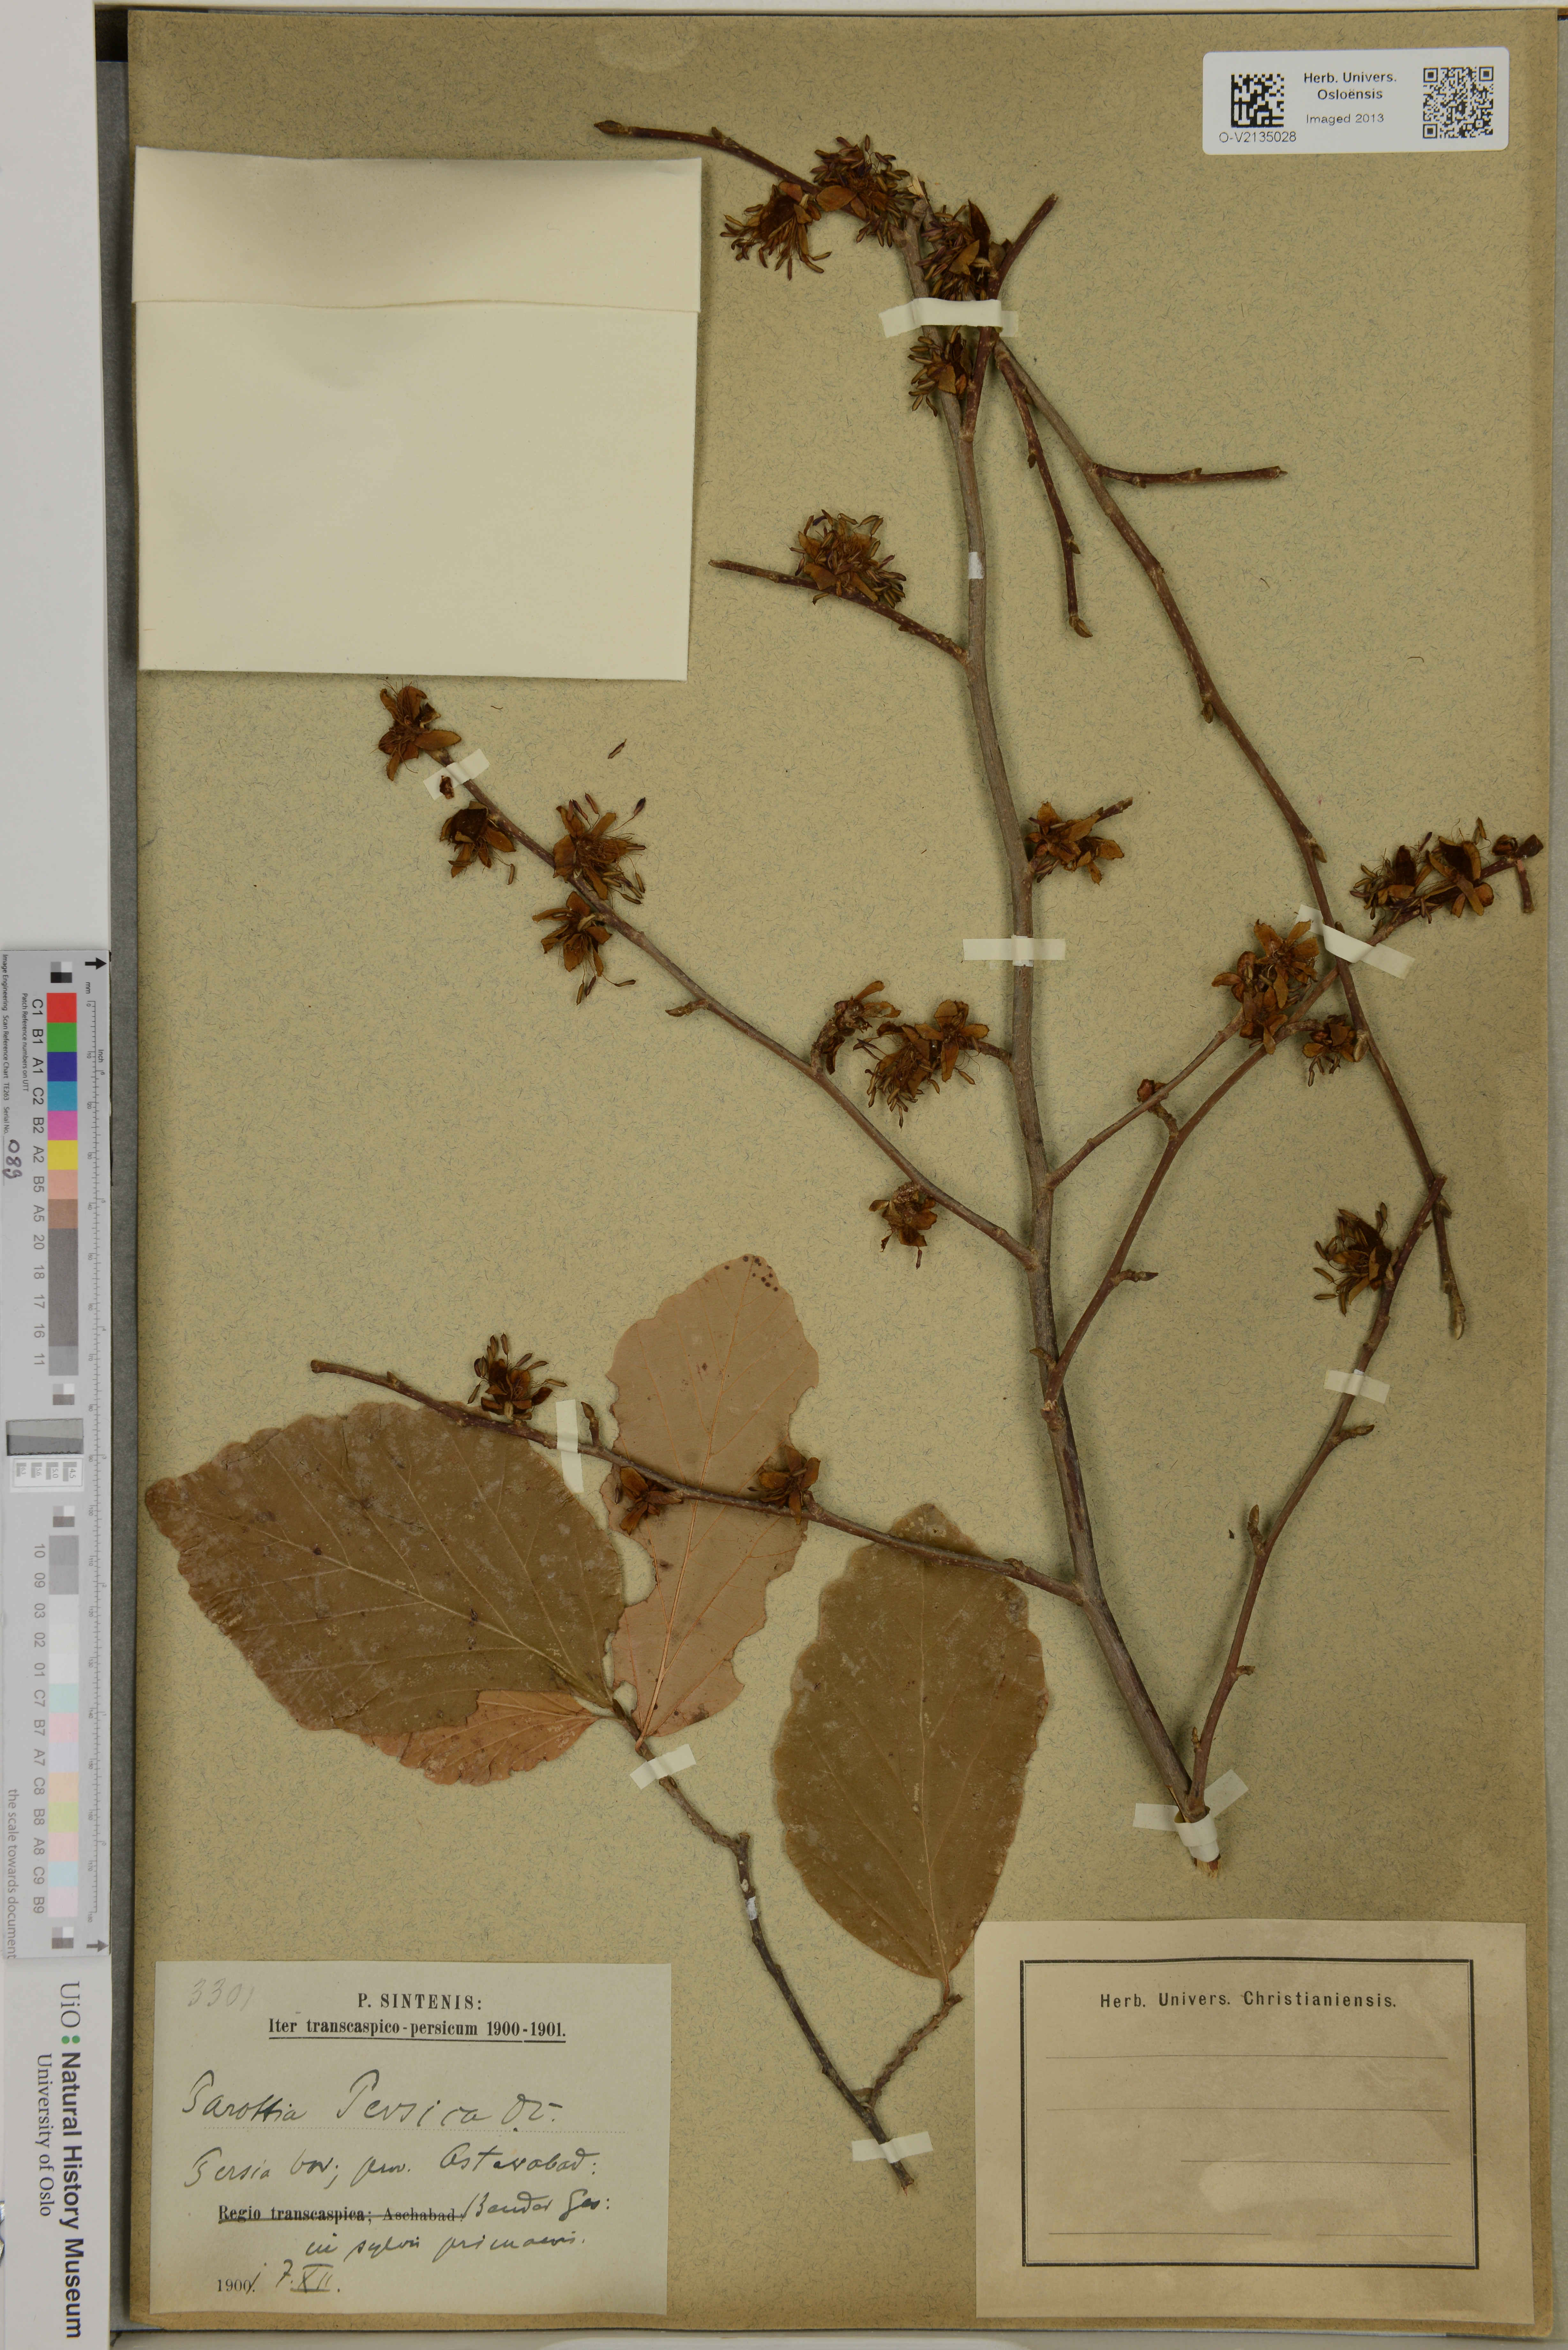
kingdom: Plantae
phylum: Tracheophyta
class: Magnoliopsida
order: Saxifragales
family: Hamamelidaceae
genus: Parrotia
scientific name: Parrotia persica
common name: Persian ironwood
